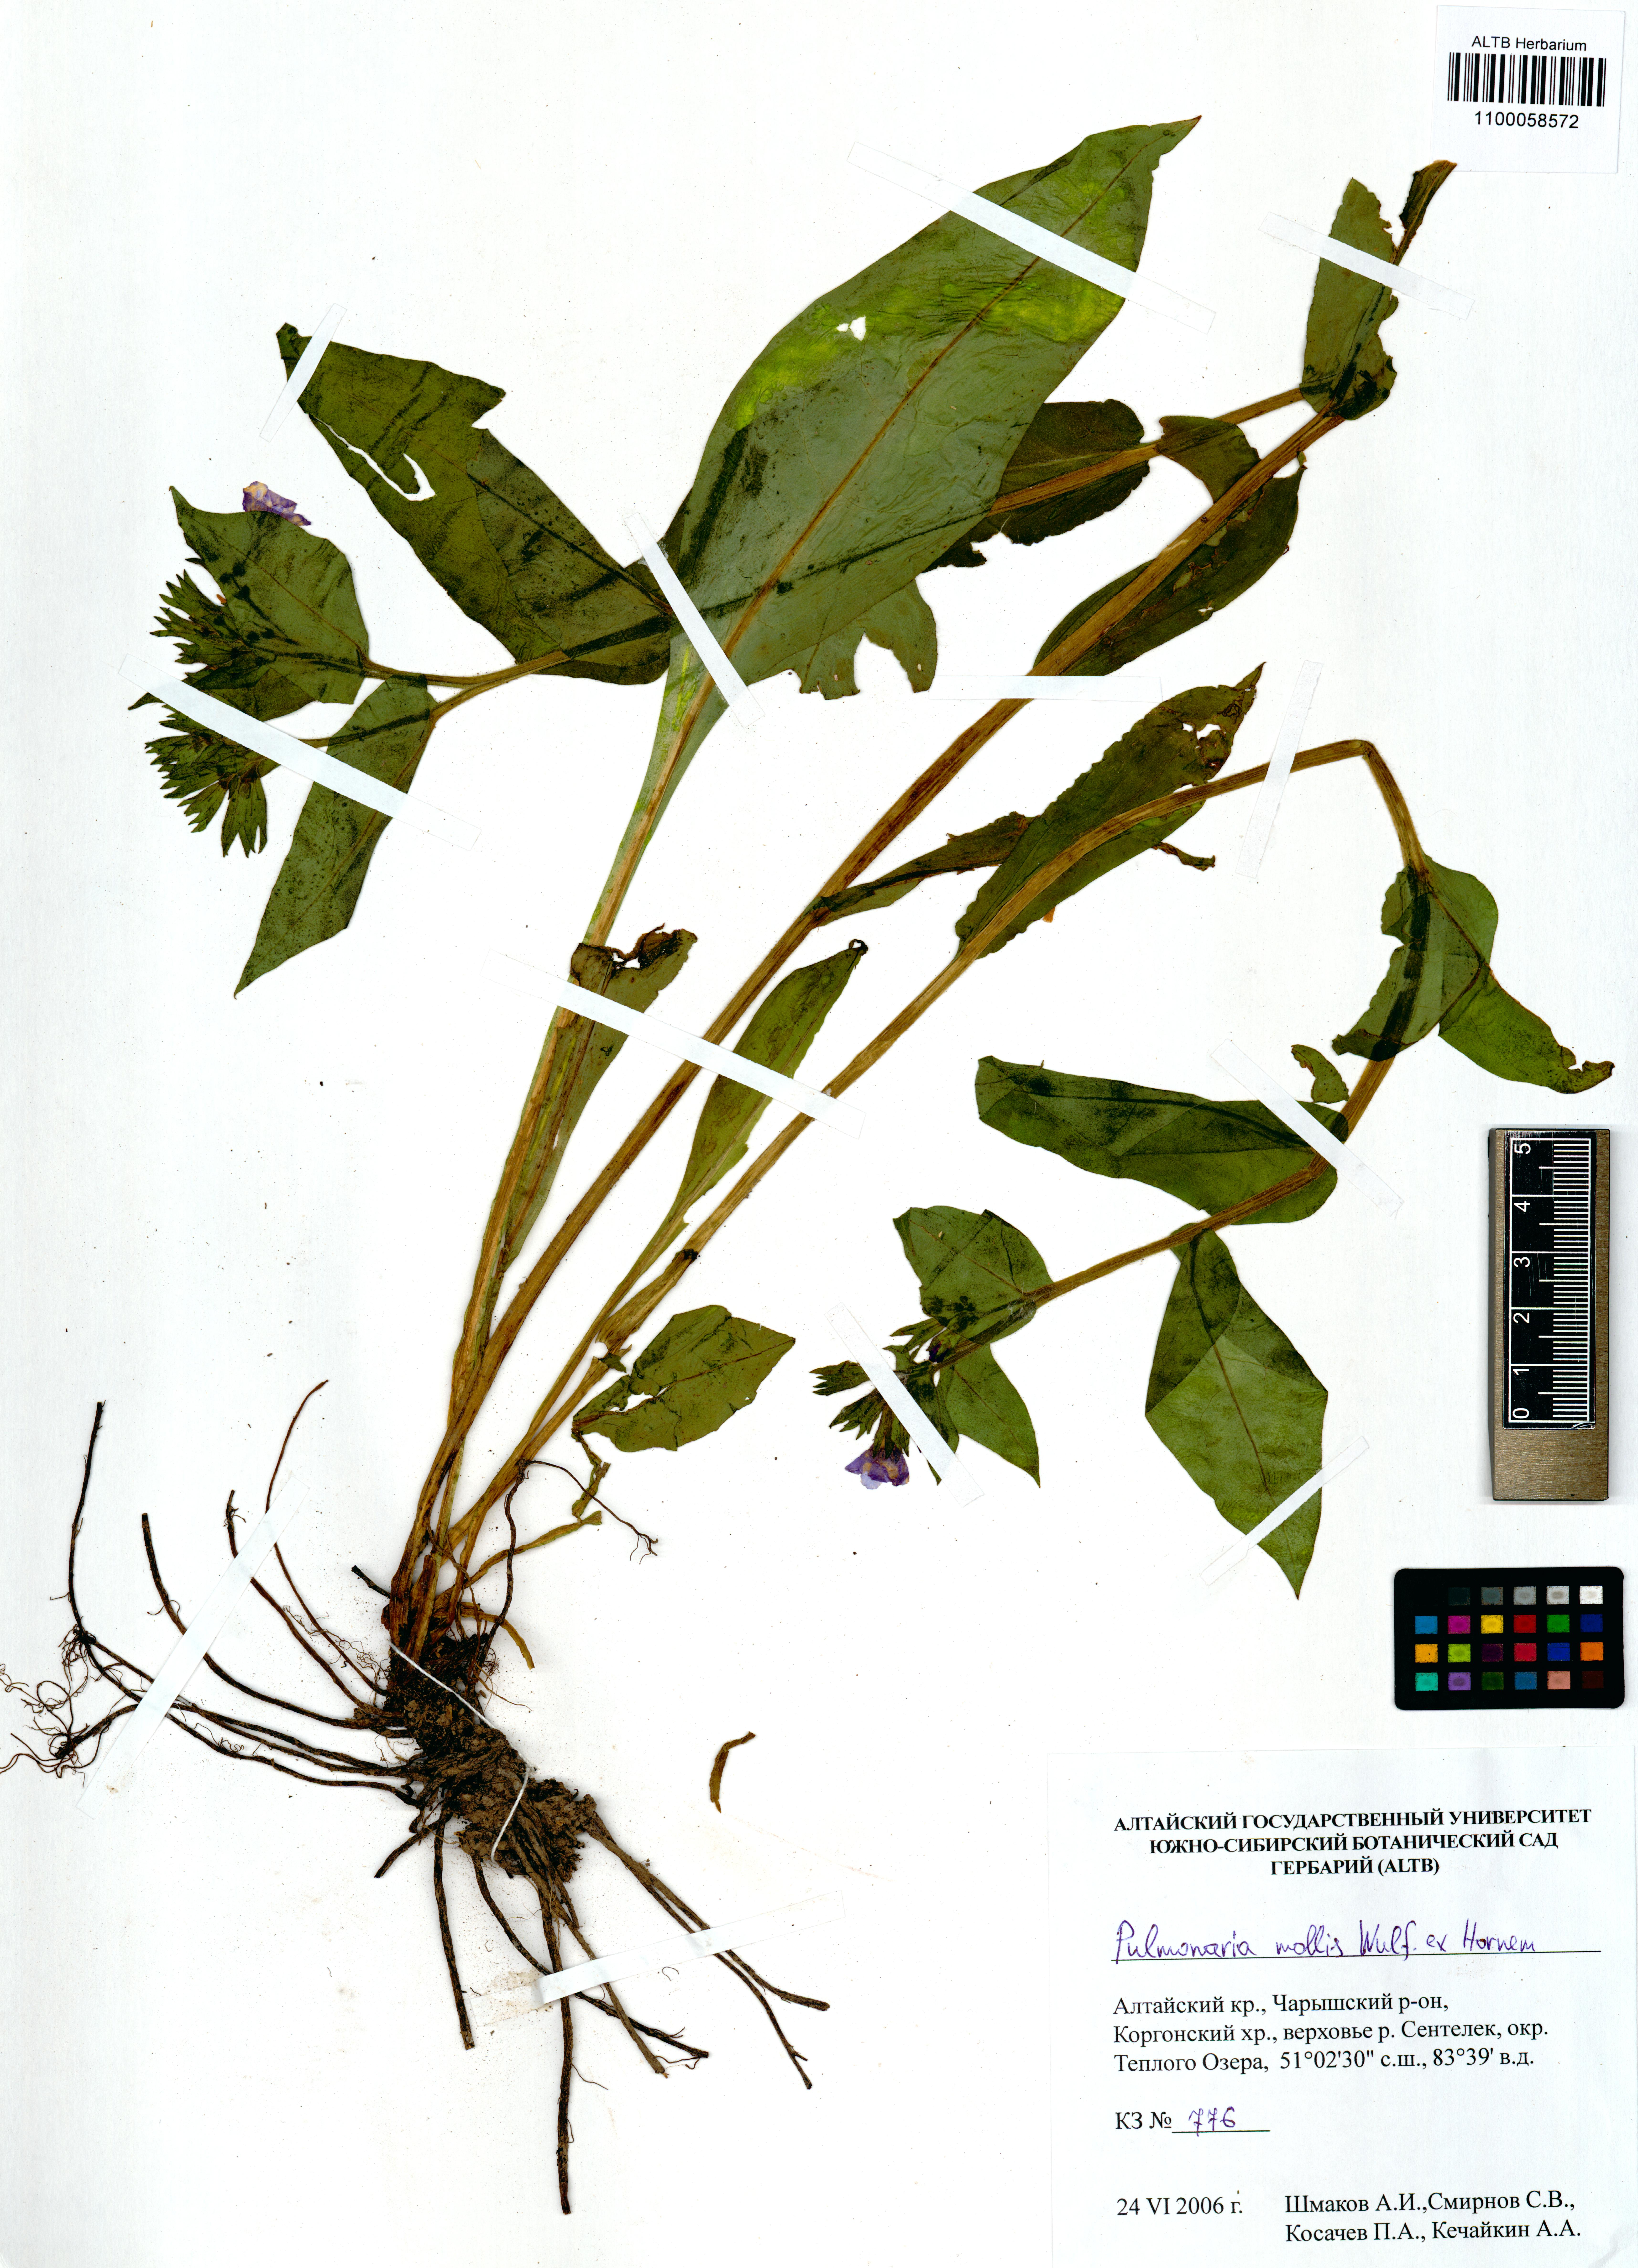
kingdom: Plantae
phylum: Tracheophyta
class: Magnoliopsida
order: Boraginales
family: Boraginaceae
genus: Pulmonaria
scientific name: Pulmonaria mollis
